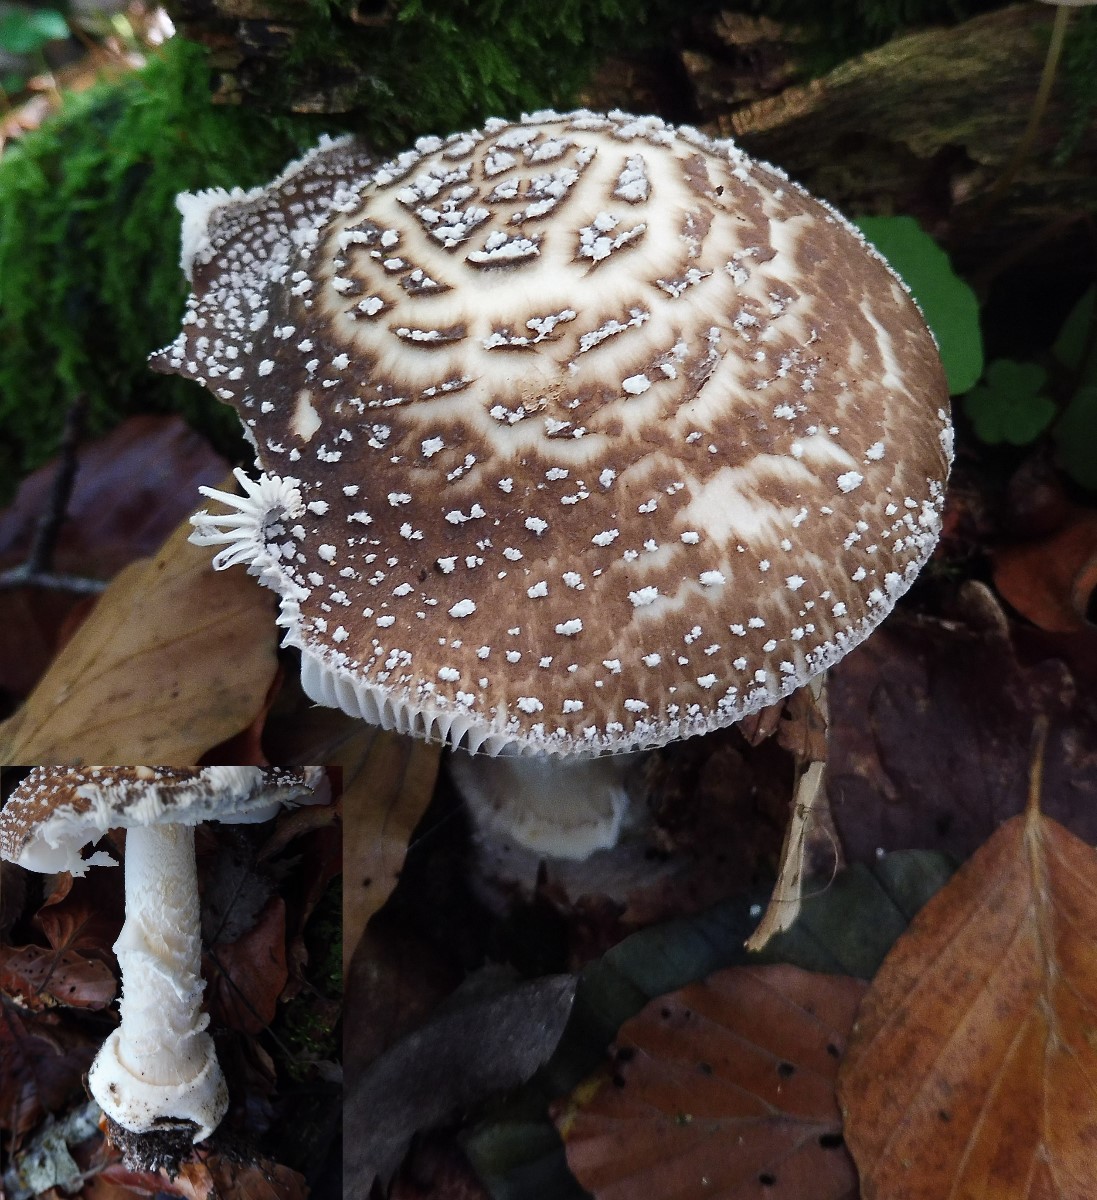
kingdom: Fungi
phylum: Basidiomycota
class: Agaricomycetes
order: Agaricales
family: Amanitaceae
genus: Amanita
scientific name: Amanita pantherina
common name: panter-fluesvamp
